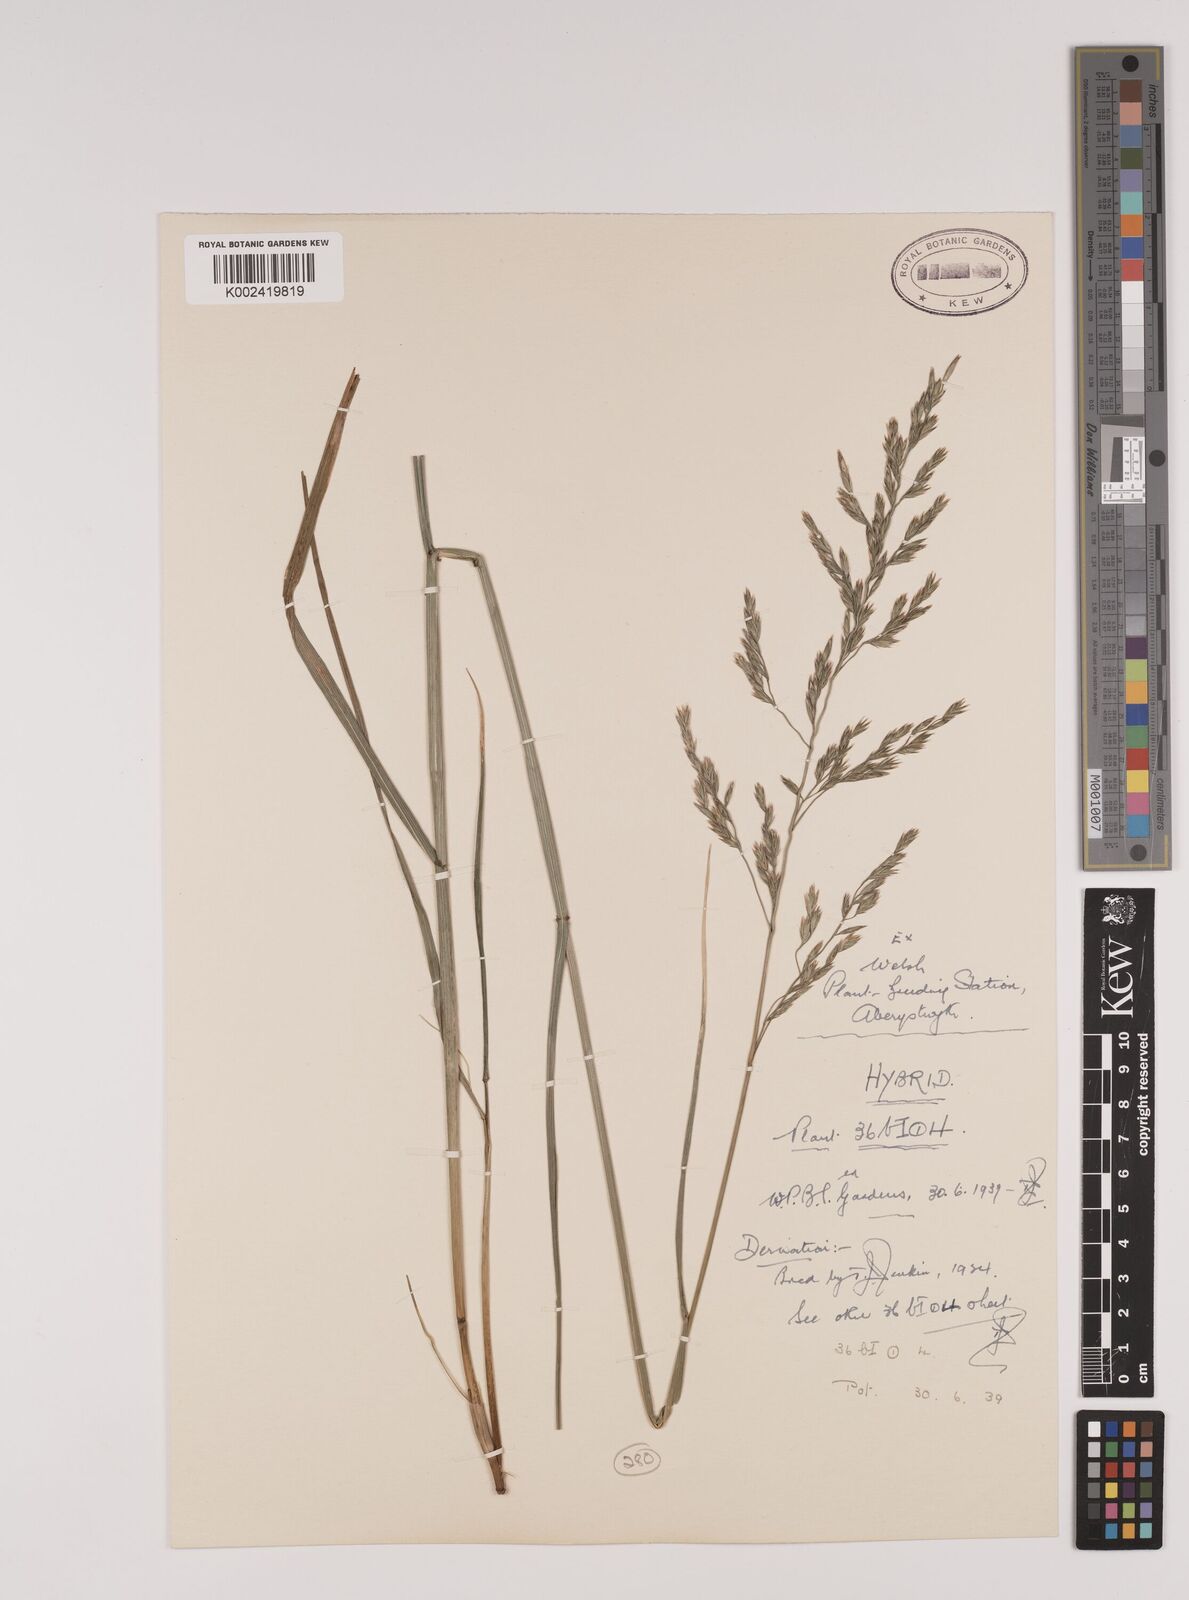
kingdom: Plantae
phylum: Tracheophyta
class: Liliopsida
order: Poales
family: Poaceae
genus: Festuca
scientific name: Festuca rubra
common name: Red fescue
